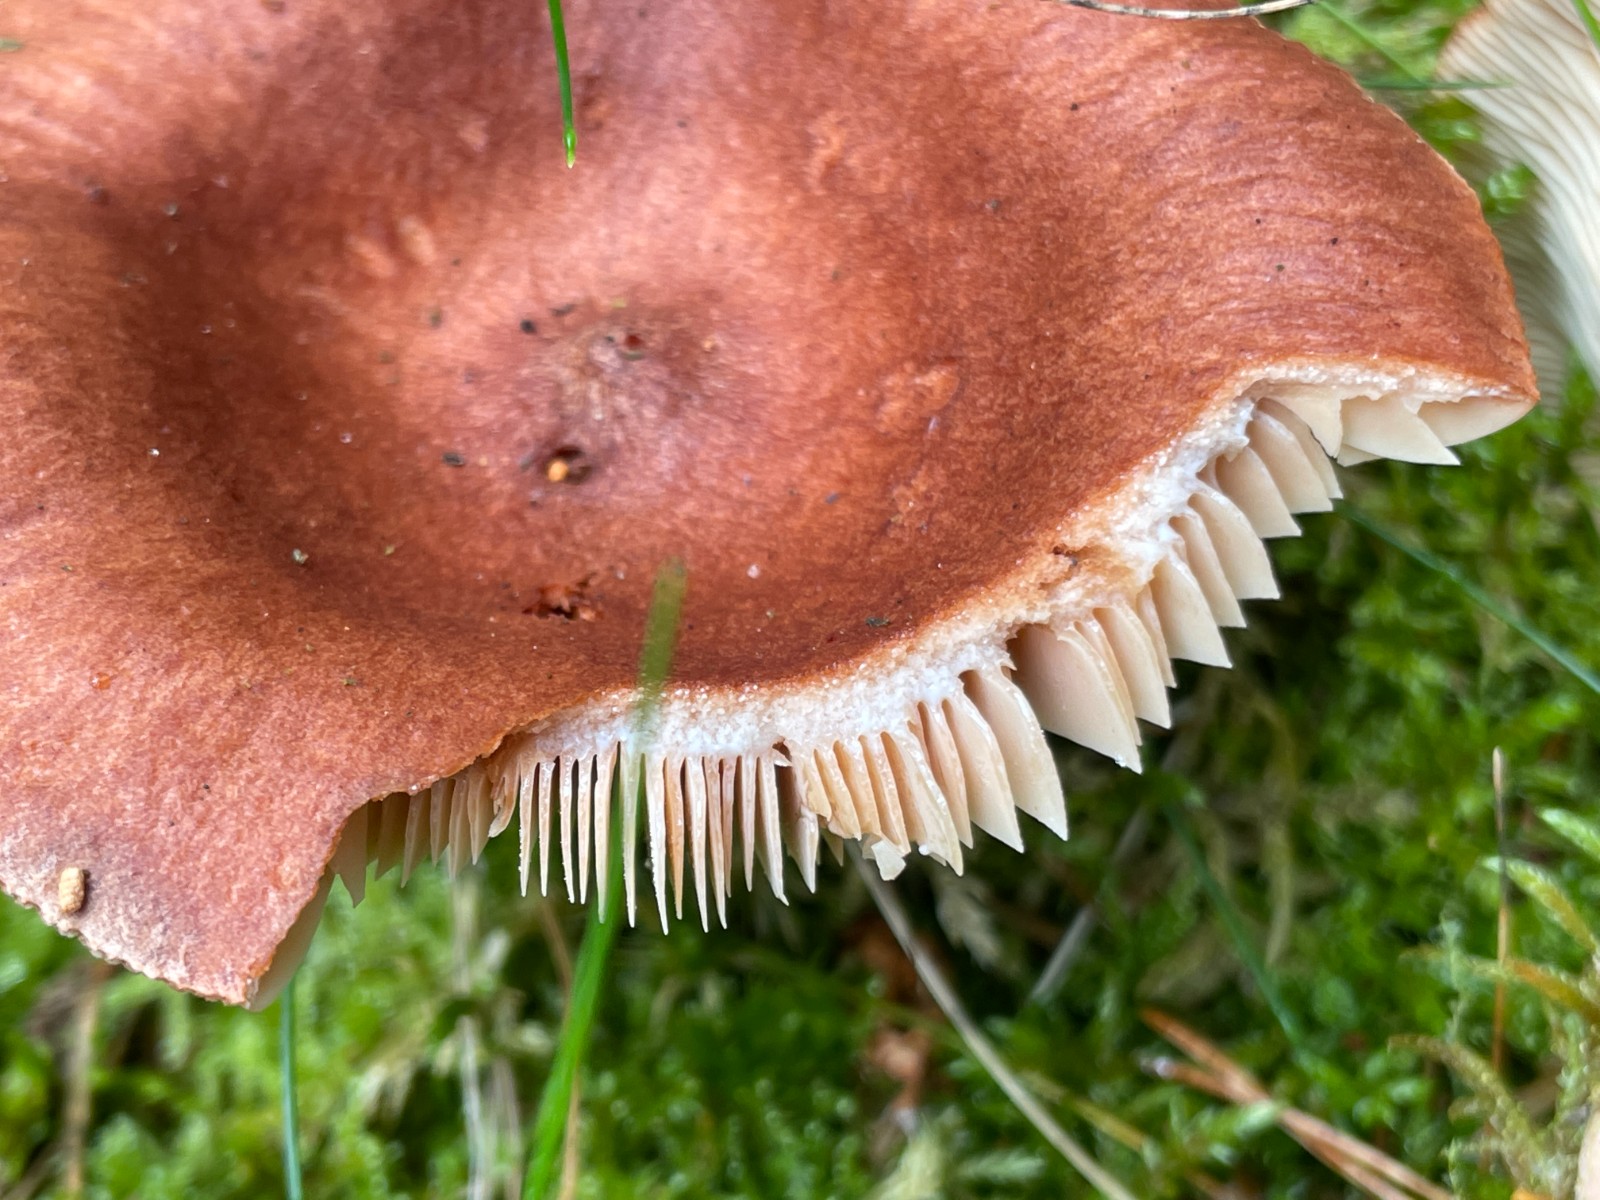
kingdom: Fungi
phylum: Basidiomycota
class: Agaricomycetes
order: Russulales
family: Russulaceae
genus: Lactarius
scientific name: Lactarius rufus
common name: rødbrun mælkehat
